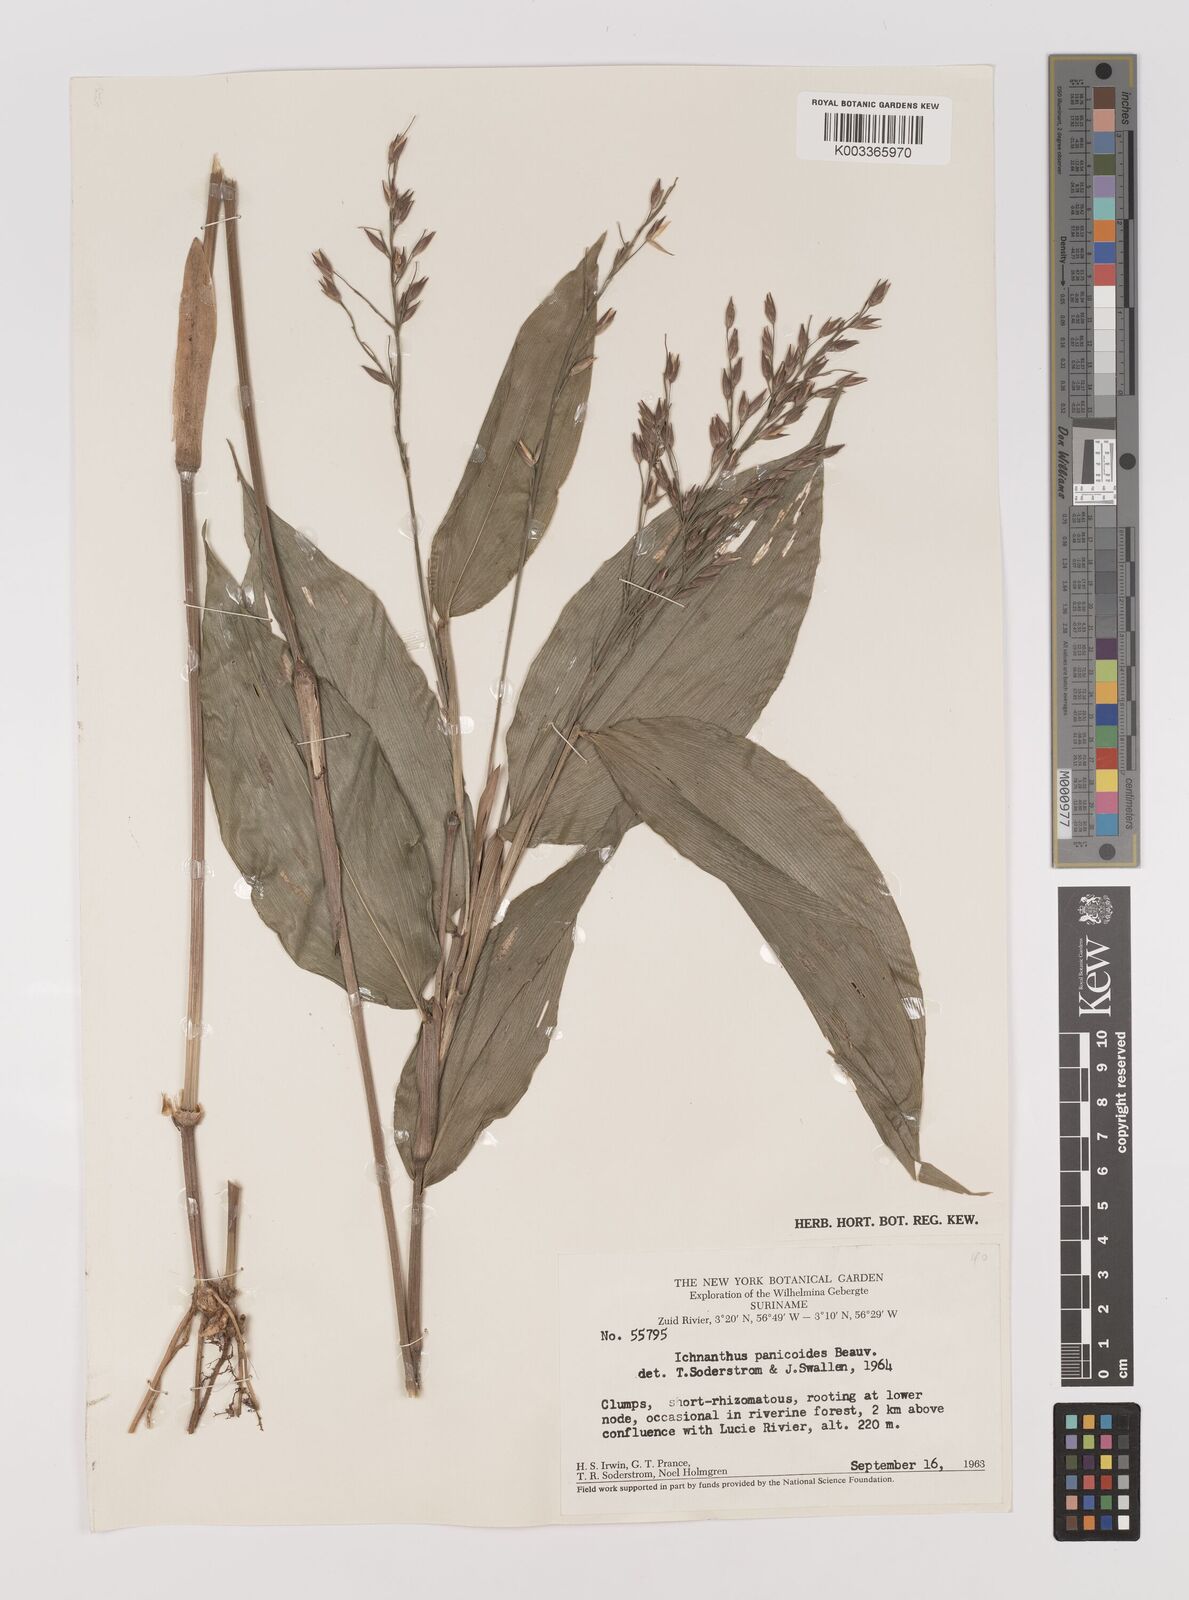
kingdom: Plantae
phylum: Tracheophyta
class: Liliopsida
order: Poales
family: Poaceae
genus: Ichnanthus
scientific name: Ichnanthus panicoides
